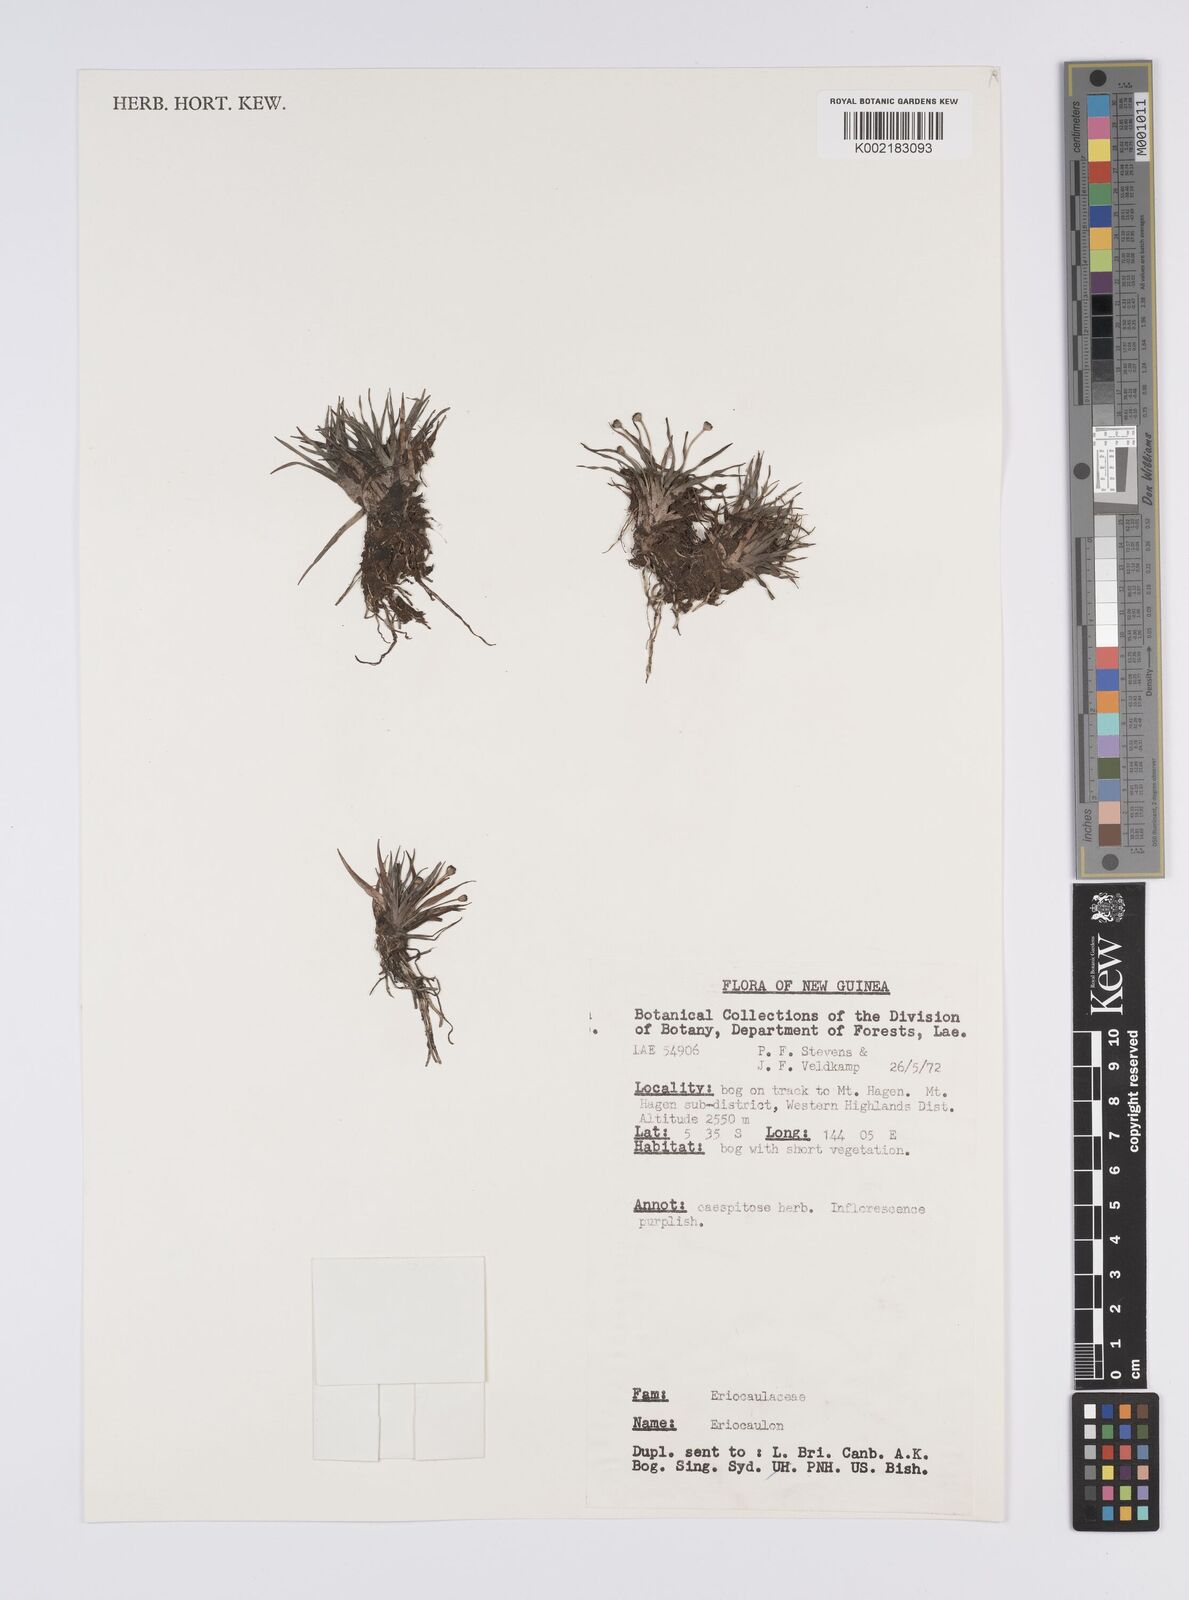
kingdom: Plantae
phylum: Tracheophyta
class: Liliopsida
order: Poales
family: Eriocaulaceae
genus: Eriocaulon
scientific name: Eriocaulon
